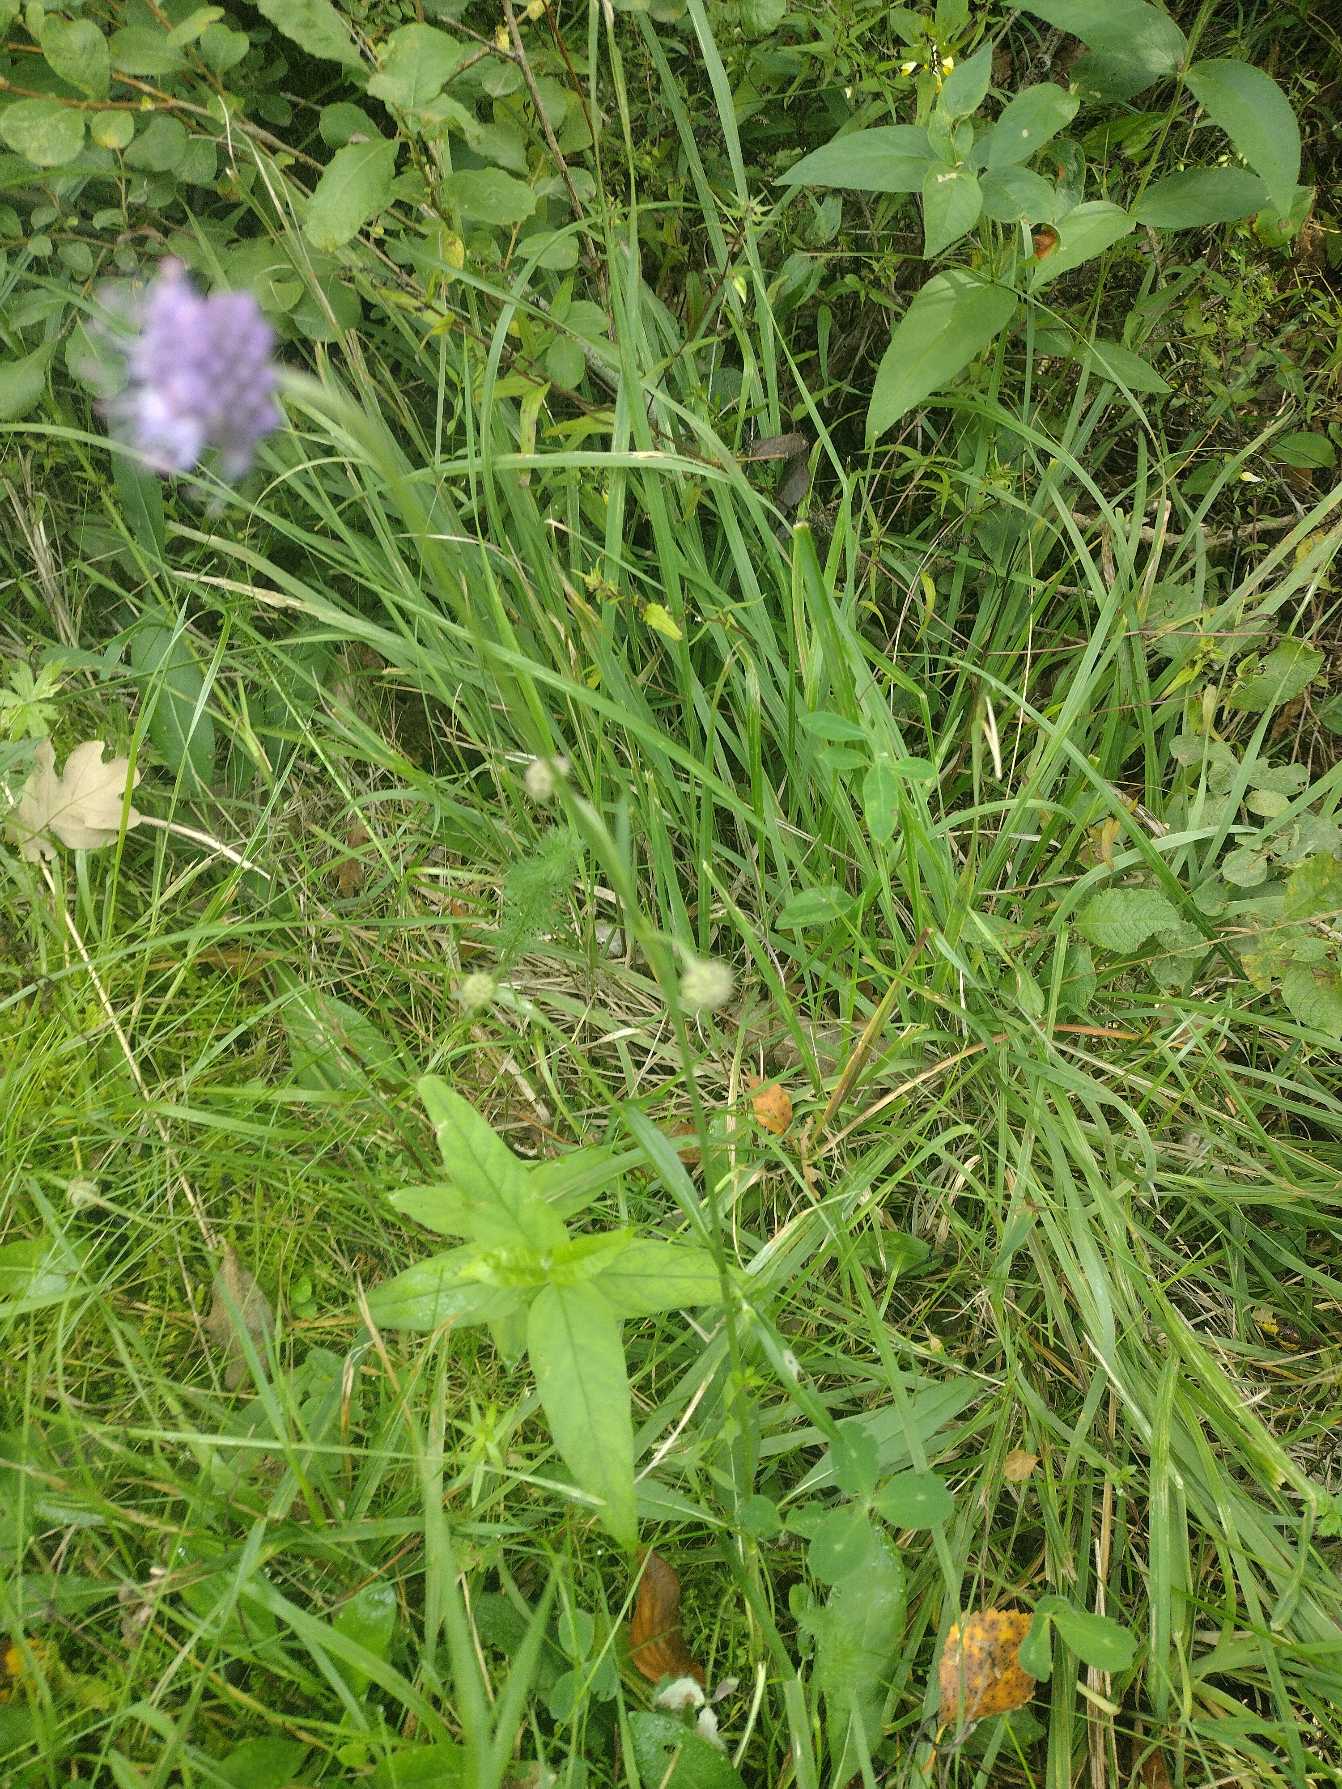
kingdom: Plantae
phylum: Tracheophyta
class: Magnoliopsida
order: Dipsacales
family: Caprifoliaceae
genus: Succisa
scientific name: Succisa pratensis
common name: Djævelsbid
